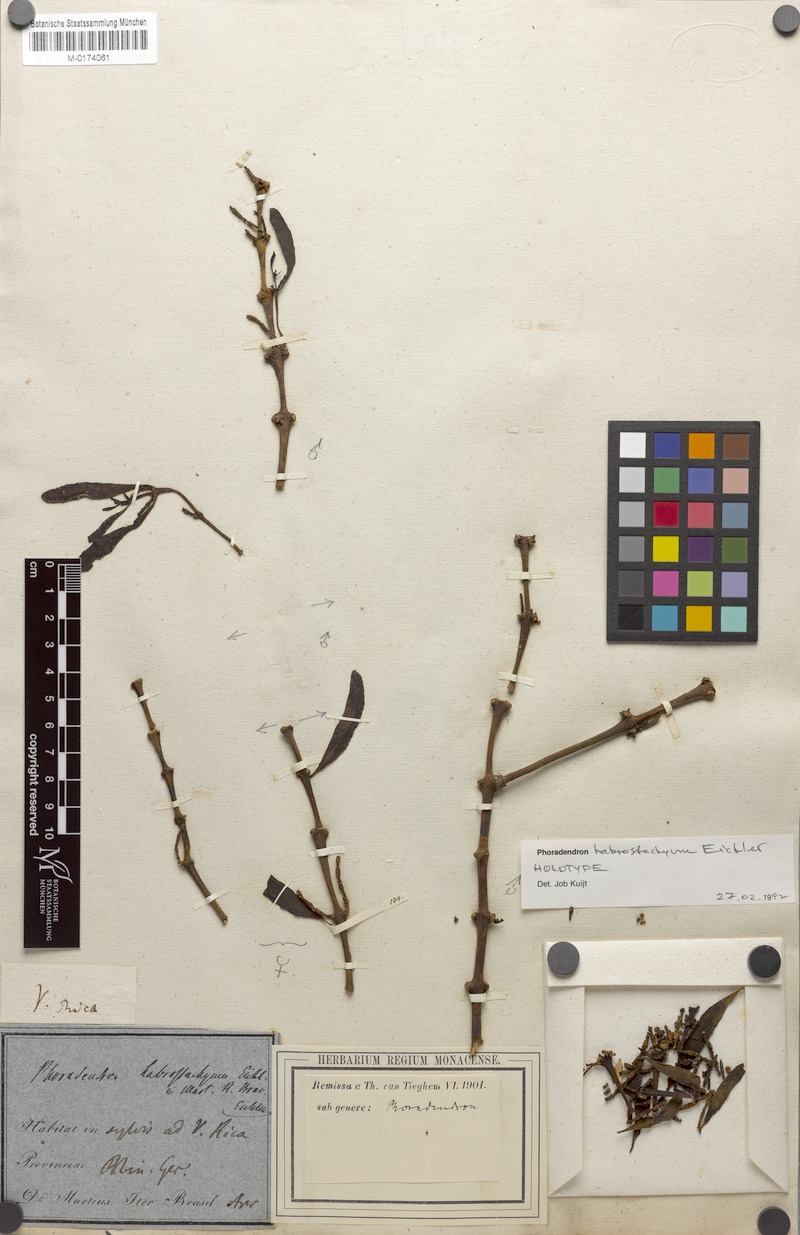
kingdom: Plantae
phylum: Tracheophyta
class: Magnoliopsida
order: Santalales
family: Viscaceae
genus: Phoradendron
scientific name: Phoradendron habrostachyum
